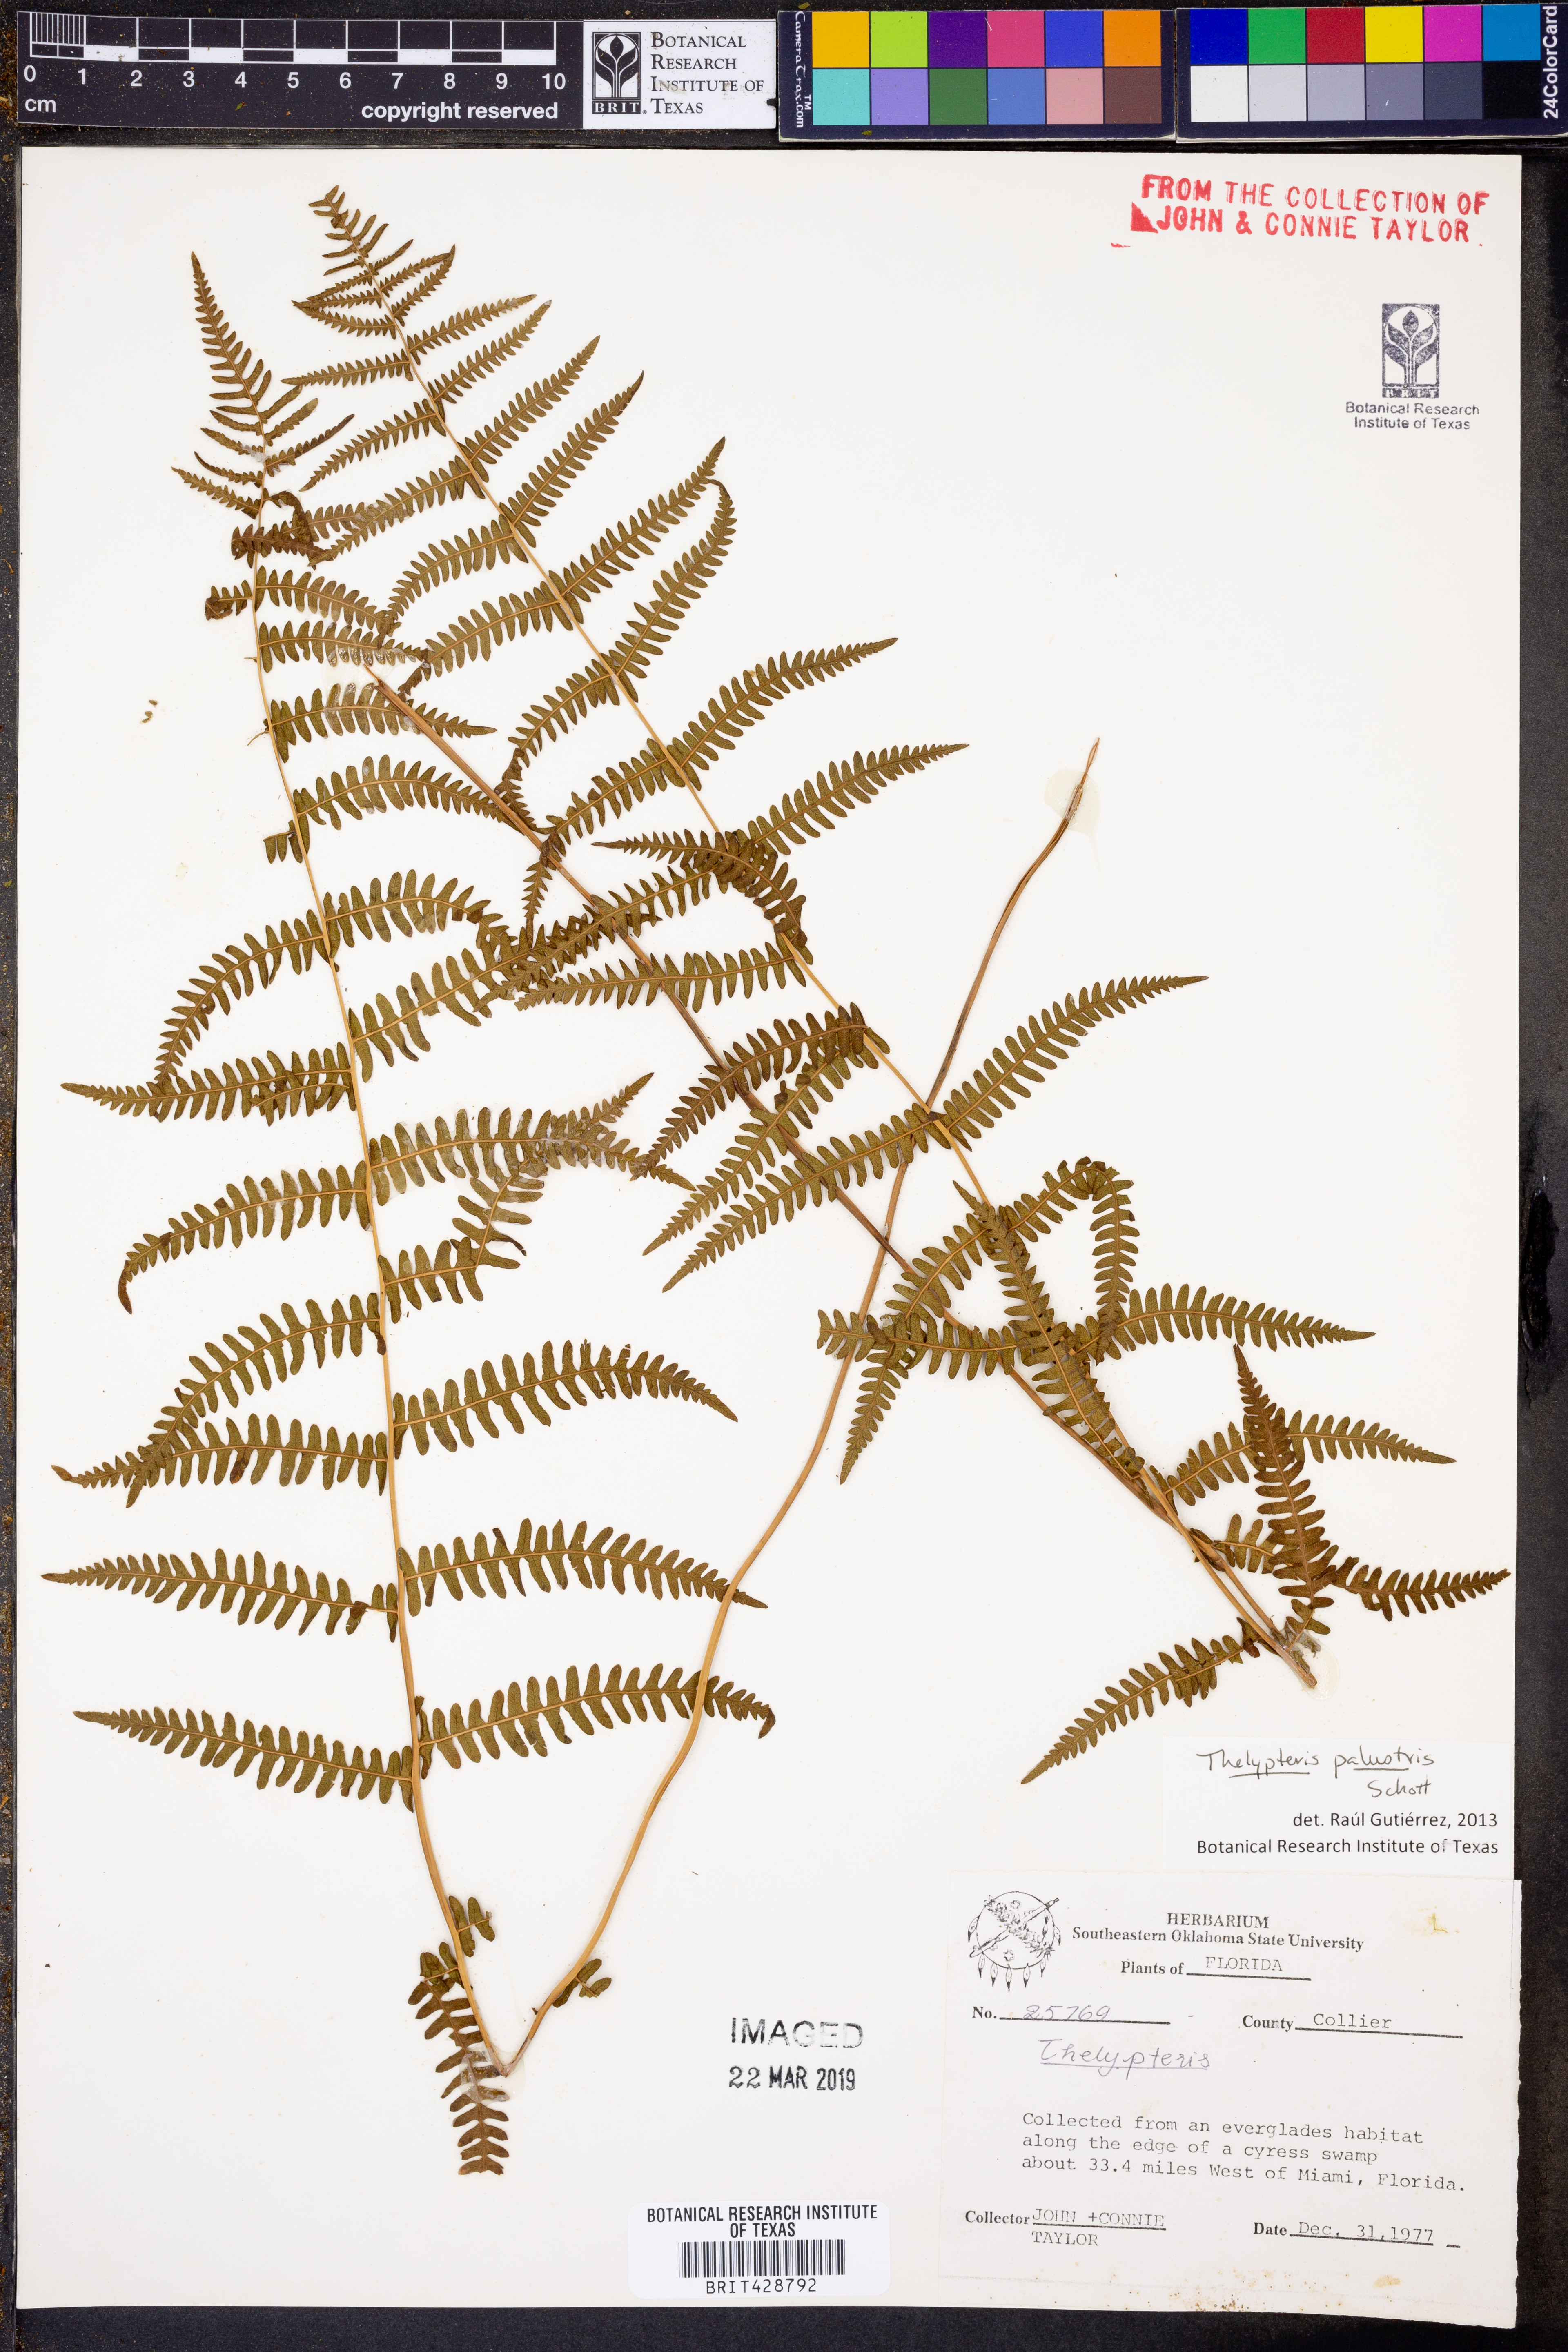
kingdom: Plantae
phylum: Tracheophyta
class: Polypodiopsida
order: Polypodiales
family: Thelypteridaceae
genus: Thelypteris
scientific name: Thelypteris palustris
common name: Marsh fern
